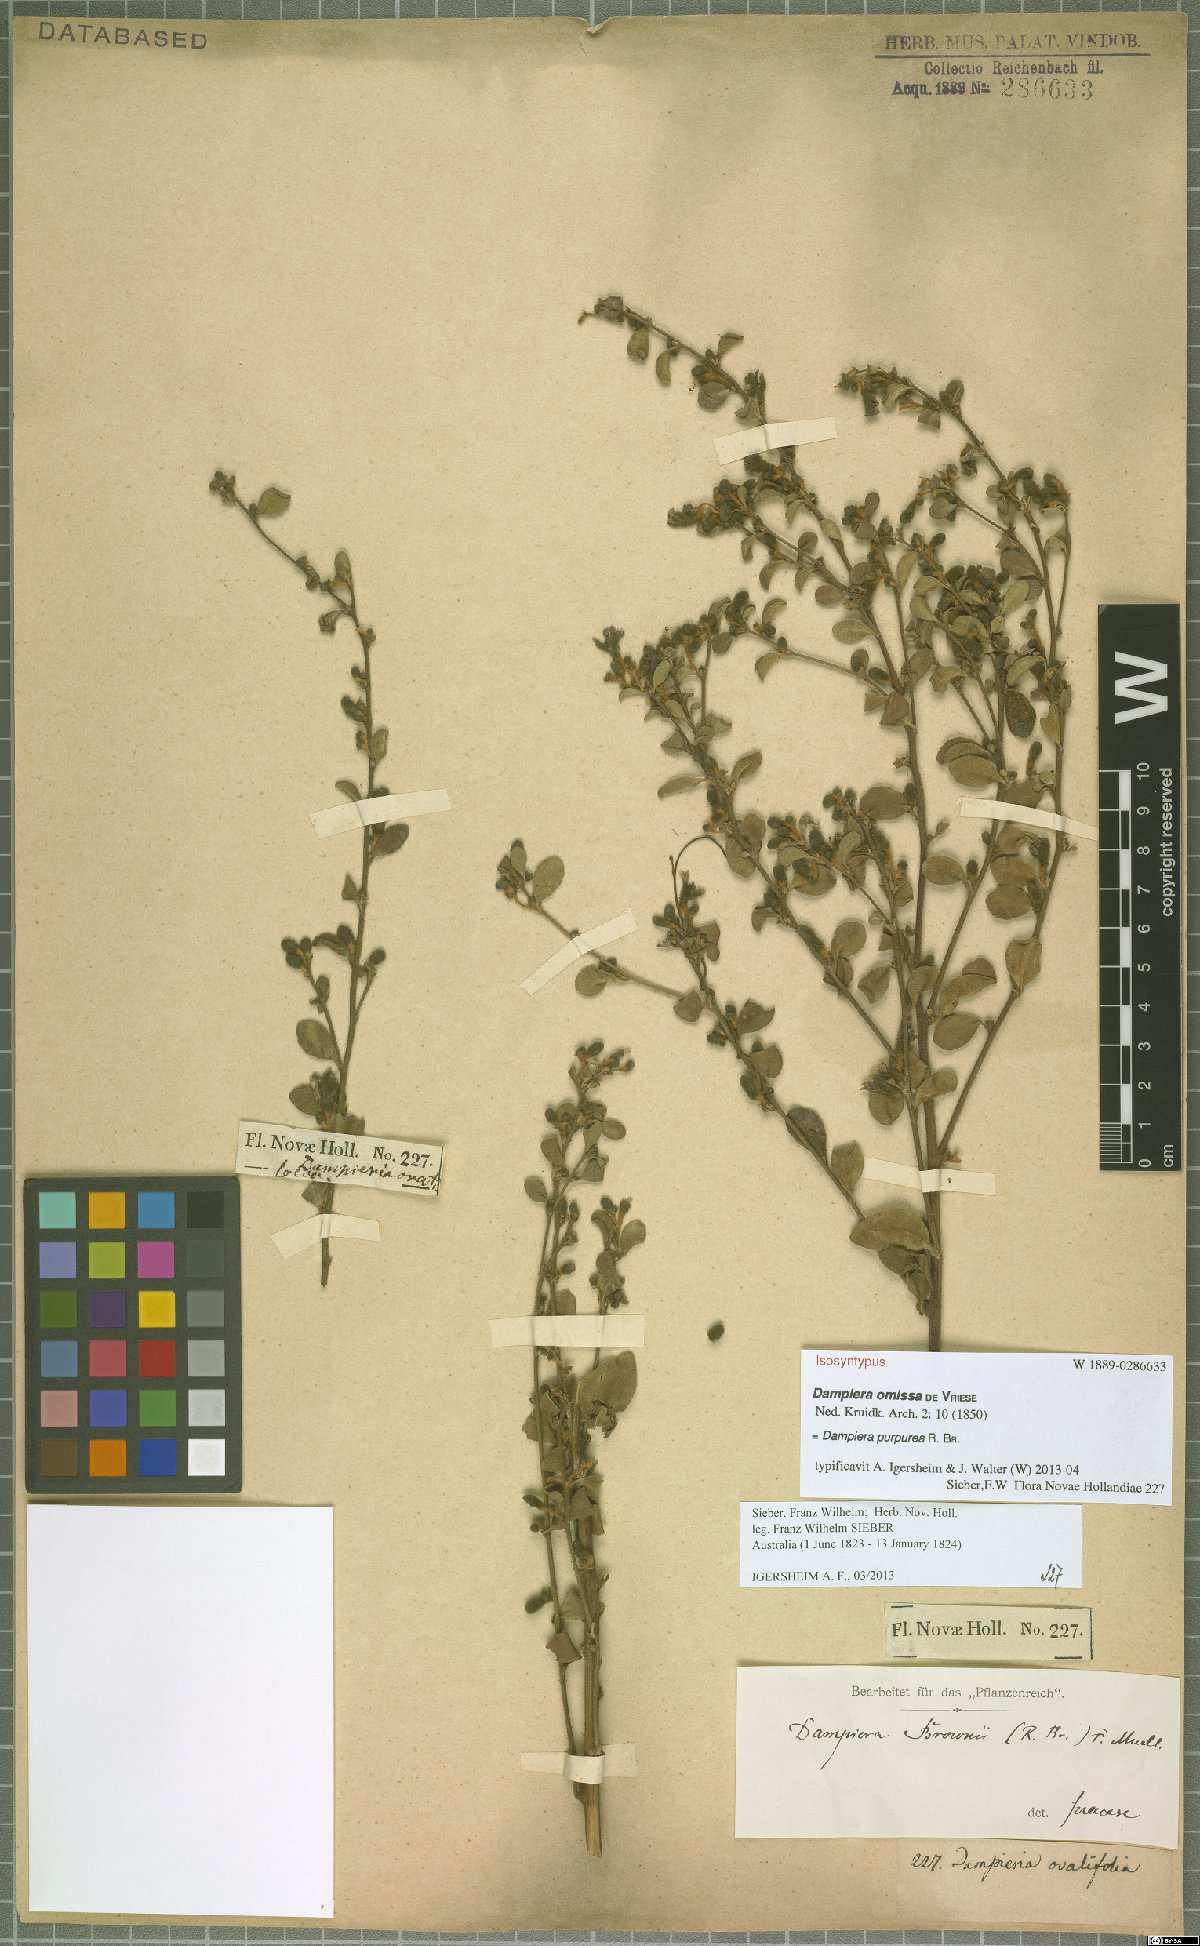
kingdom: Plantae
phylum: Tracheophyta
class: Magnoliopsida
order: Asterales
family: Goodeniaceae
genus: Dampiera
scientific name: Dampiera purpurea
